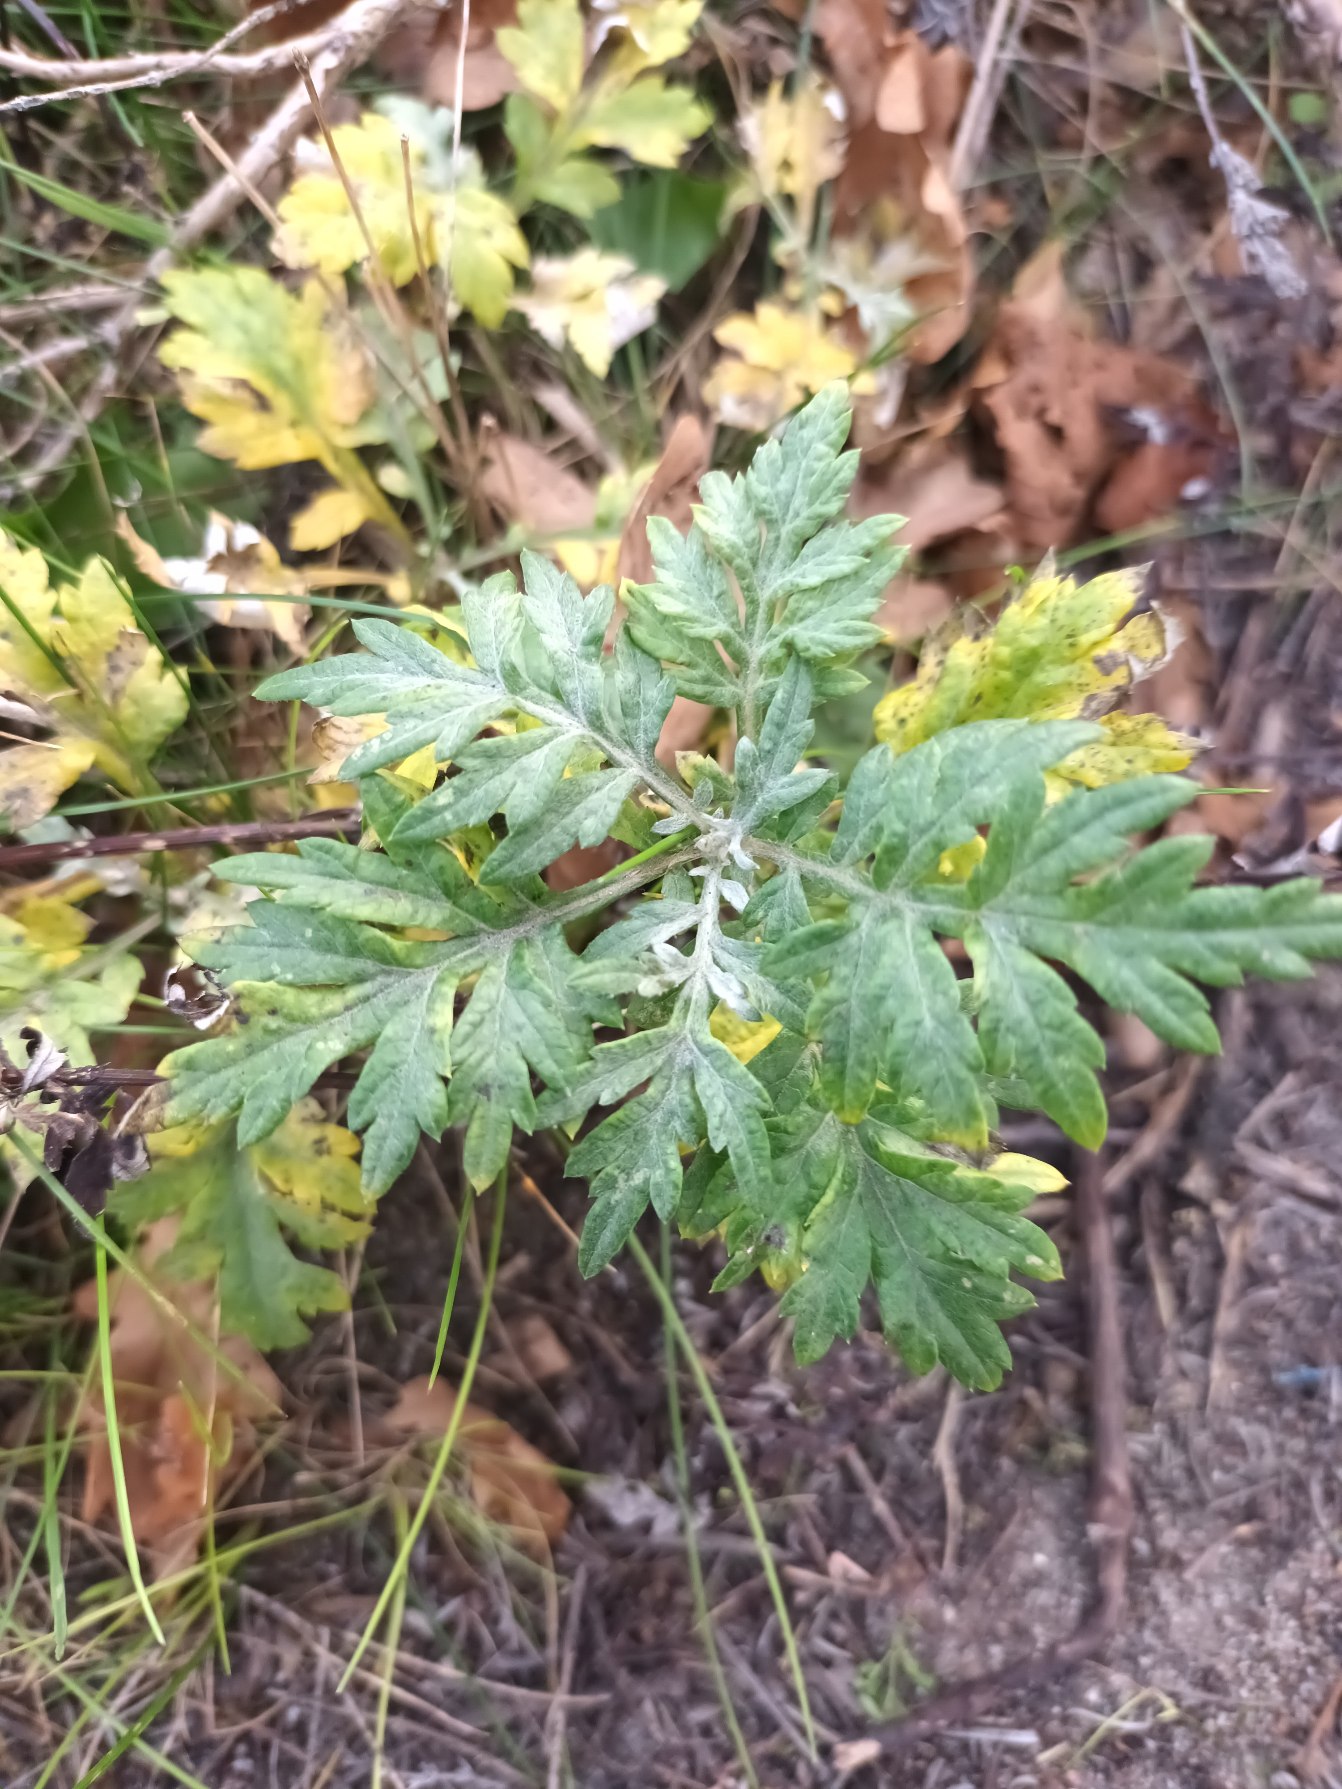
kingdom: Plantae
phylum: Tracheophyta
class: Magnoliopsida
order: Asterales
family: Asteraceae
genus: Artemisia
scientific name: Artemisia vulgaris
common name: Grå-bynke
